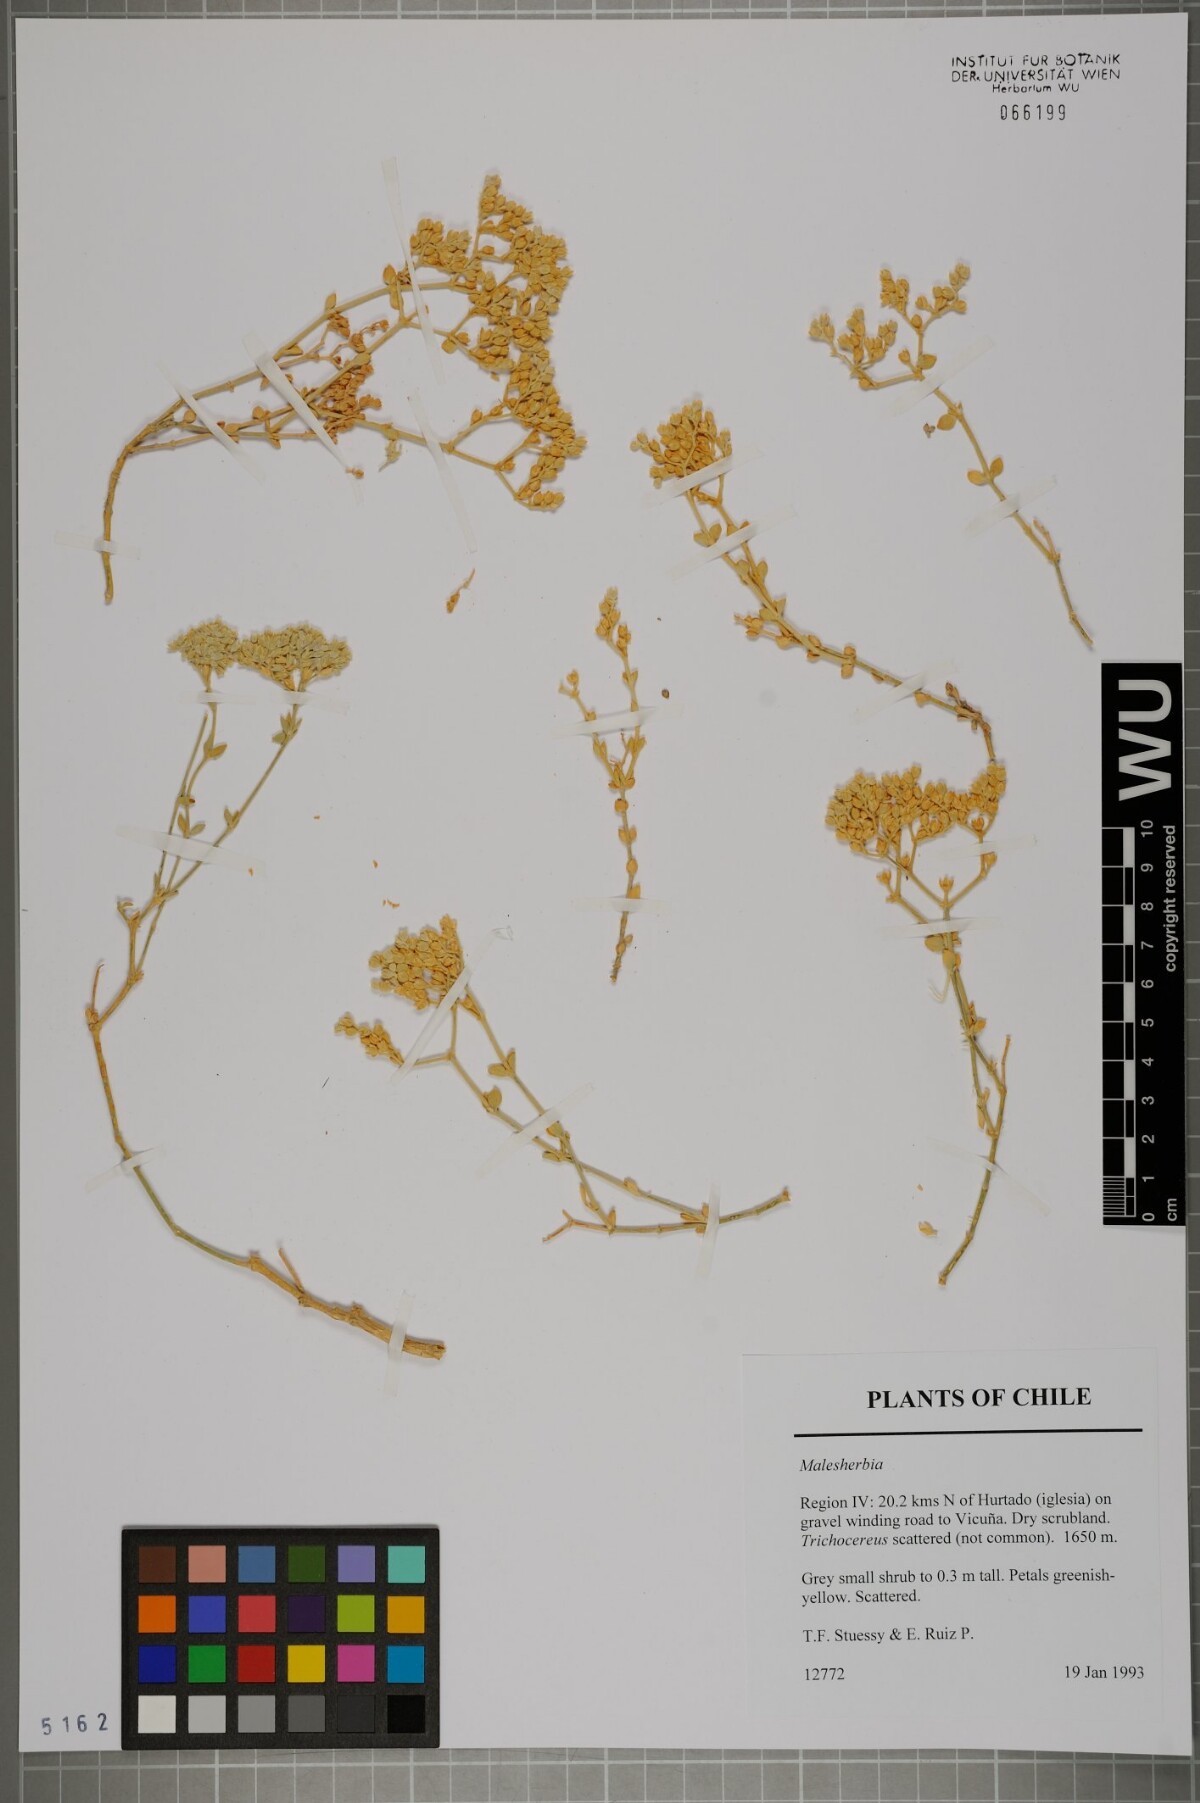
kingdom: Plantae
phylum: Tracheophyta
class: Magnoliopsida
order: Malpighiales
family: Malesherbiaceae
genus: Malesherbia
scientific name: Malesherbia
